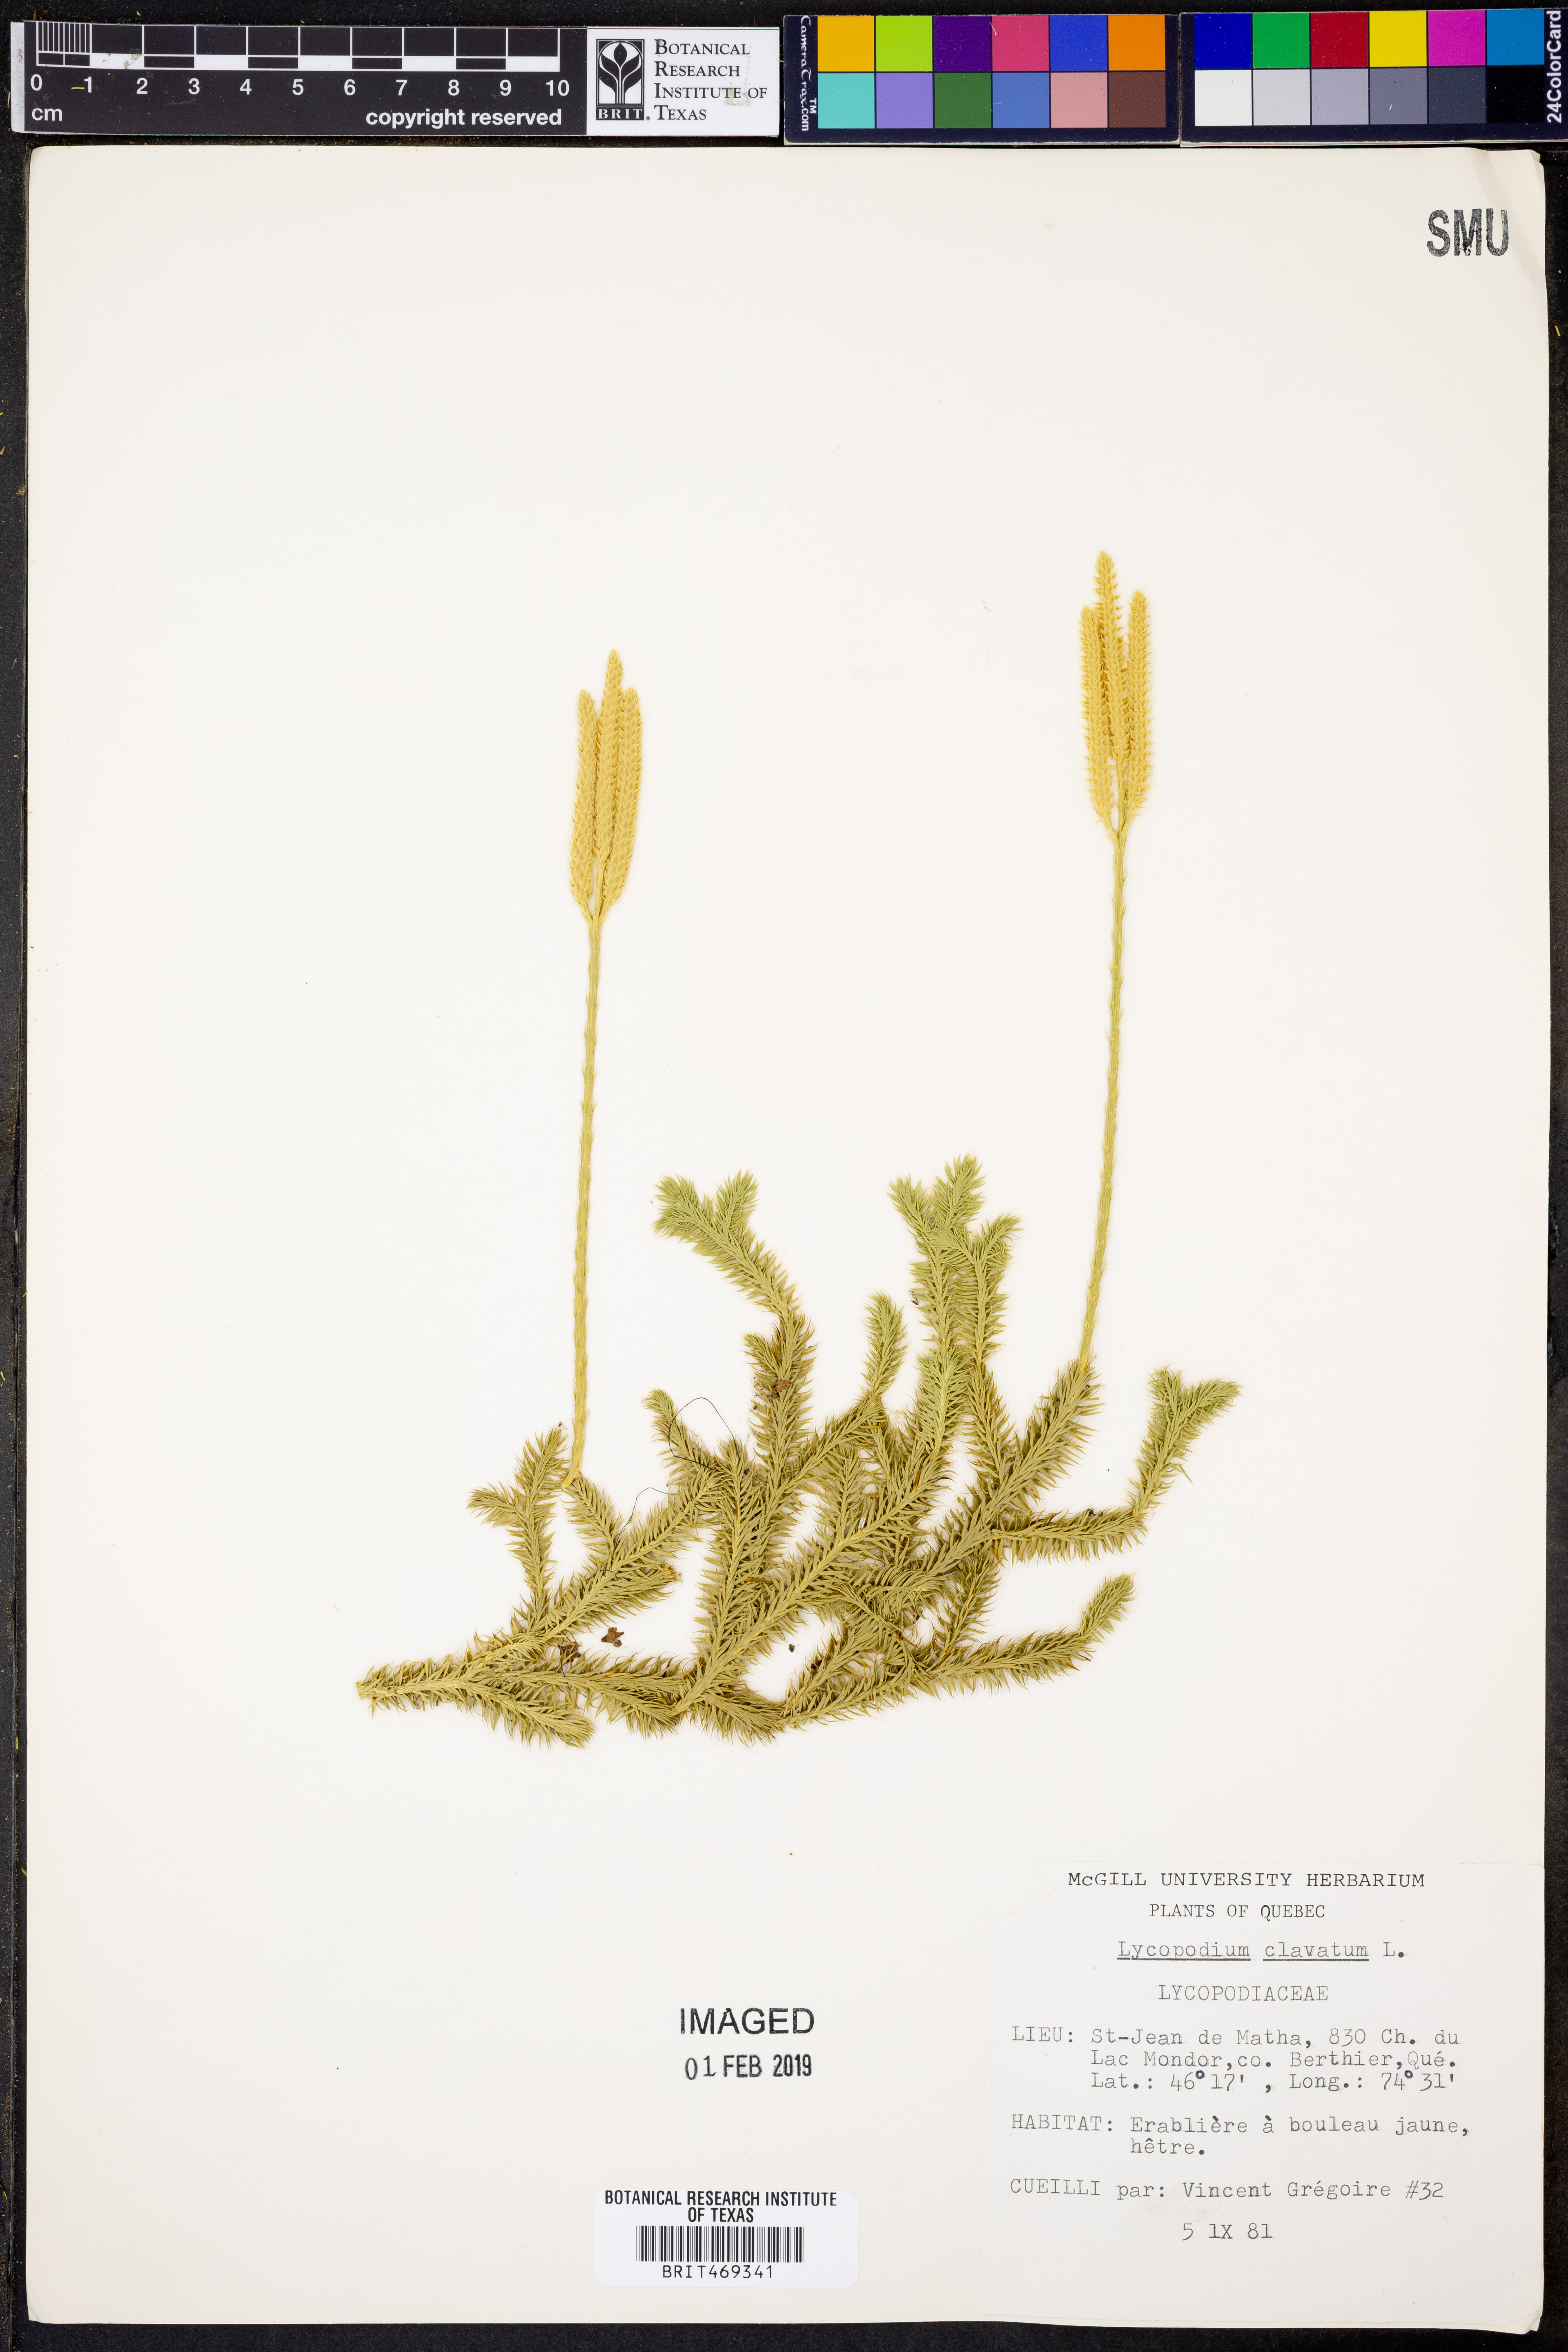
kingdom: Plantae
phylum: Tracheophyta
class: Lycopodiopsida
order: Lycopodiales
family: Lycopodiaceae
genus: Lycopodium
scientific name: Lycopodium clavatum
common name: Stag's-horn clubmoss
